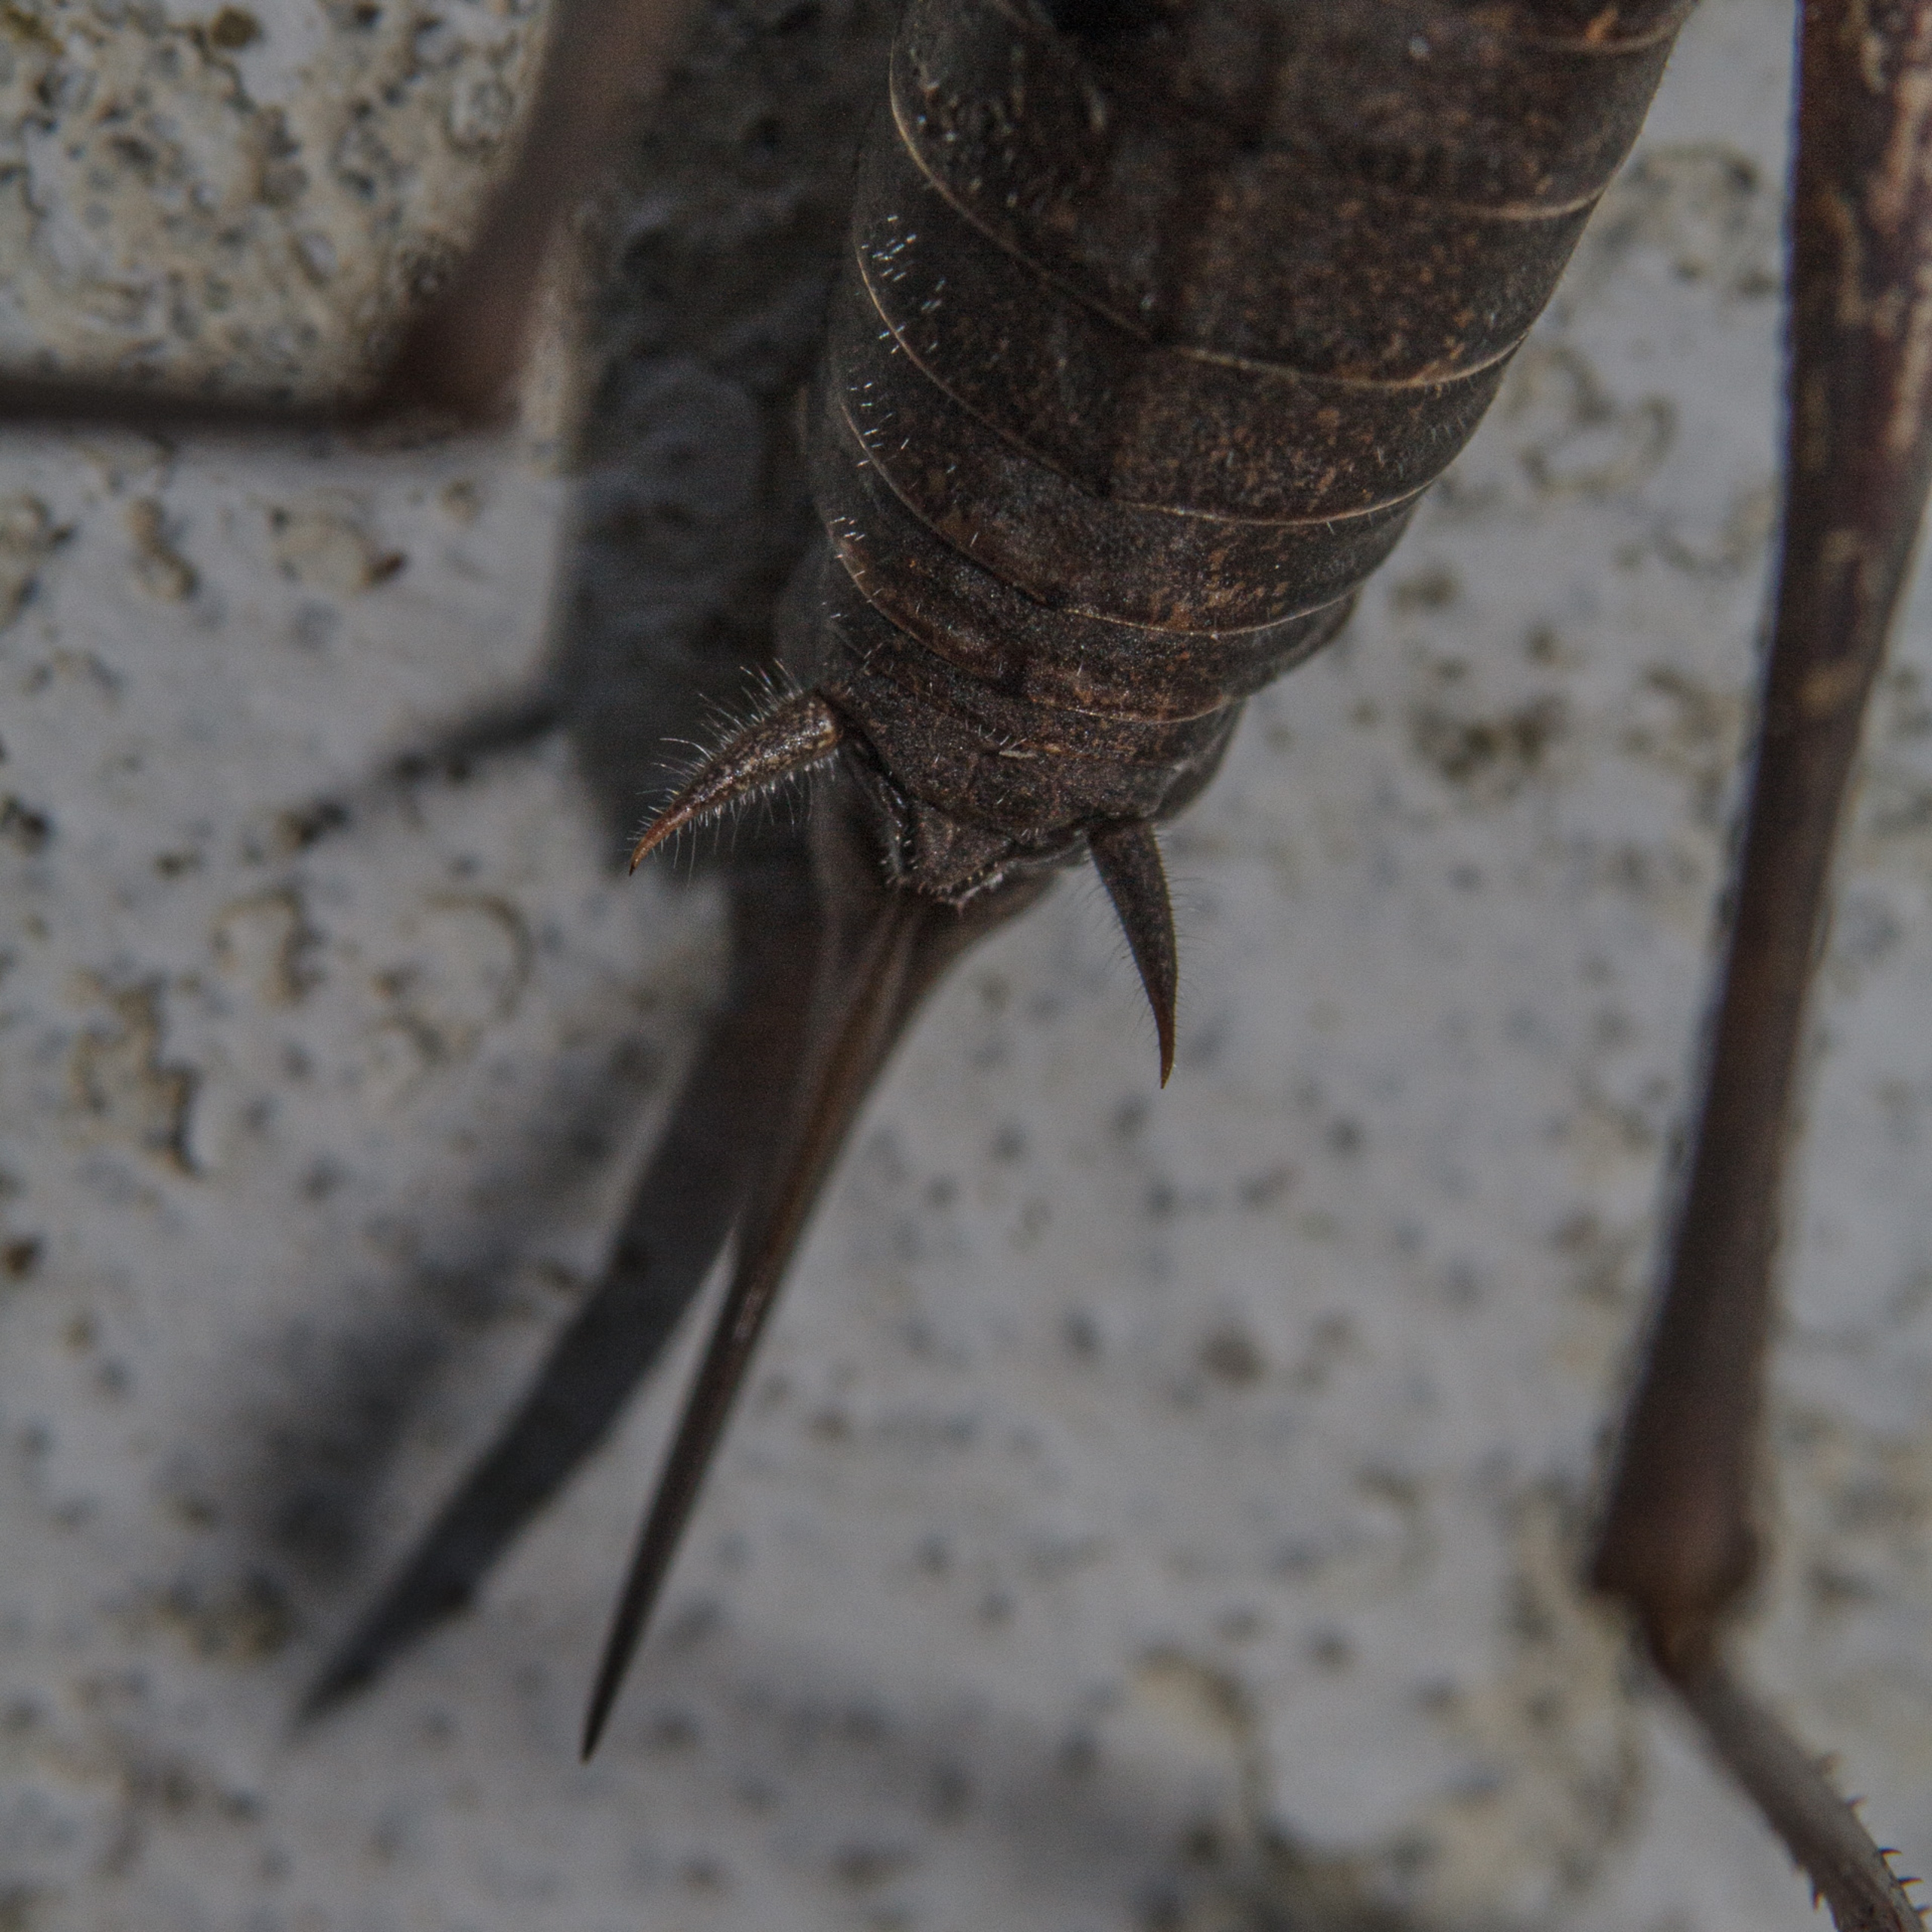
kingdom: Animalia
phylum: Arthropoda
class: Insecta
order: Orthoptera
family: Tettigoniidae
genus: Pholidoptera
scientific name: Pholidoptera griseoaptera
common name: Buskgræshoppe
